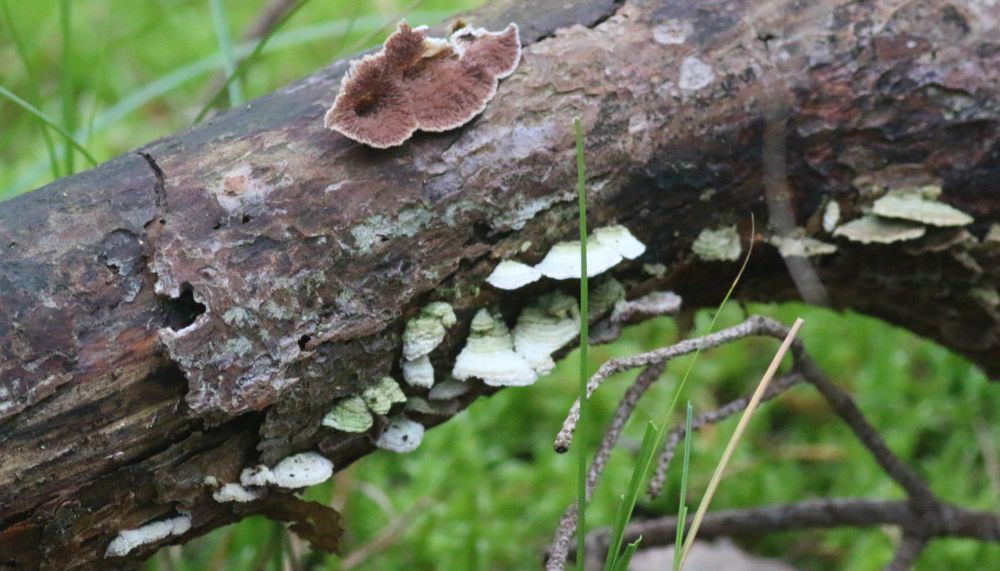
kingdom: Fungi
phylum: Basidiomycota
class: Agaricomycetes
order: Hymenochaetales
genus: Trichaptum
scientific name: Trichaptum fuscoviolaceum
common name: tandet violporesvamp
